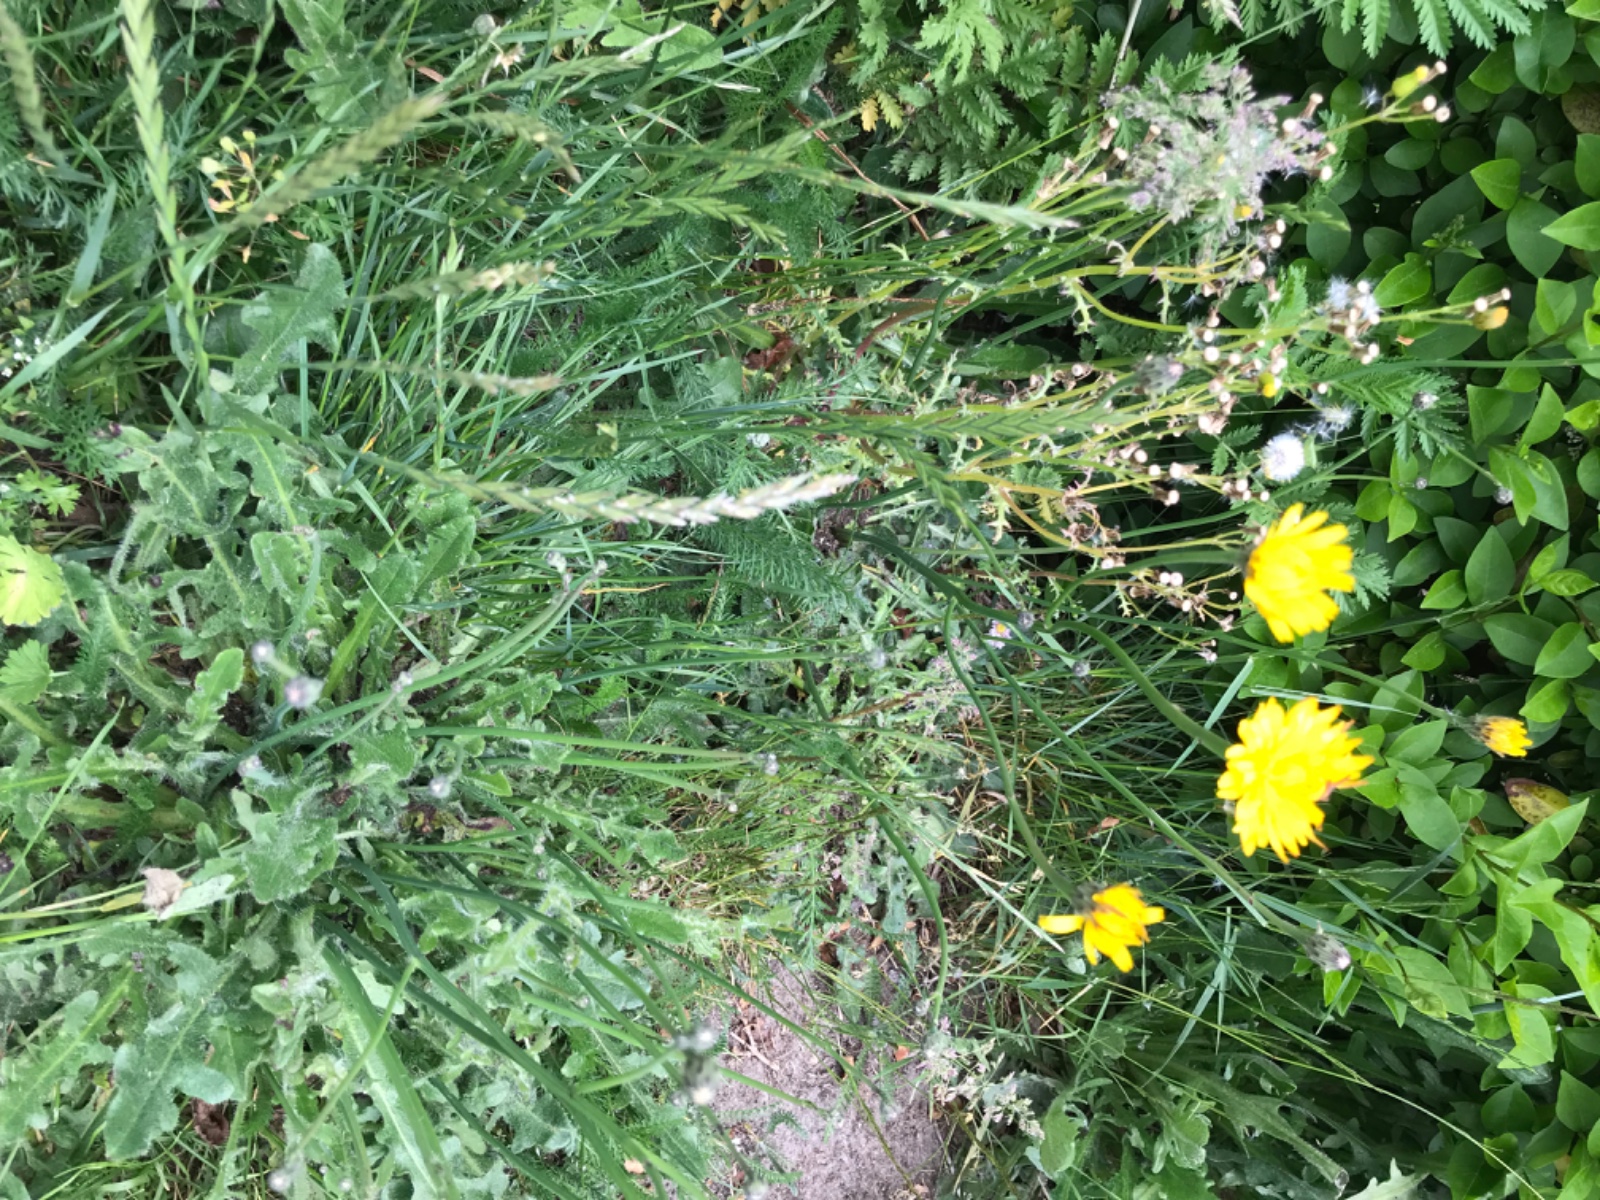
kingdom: Fungi
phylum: Ascomycota
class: Leotiomycetes
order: Helotiales
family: Erysiphaceae
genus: Golovinomyces
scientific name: Golovinomyces cichoracearum
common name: kurvblomst-meldug
